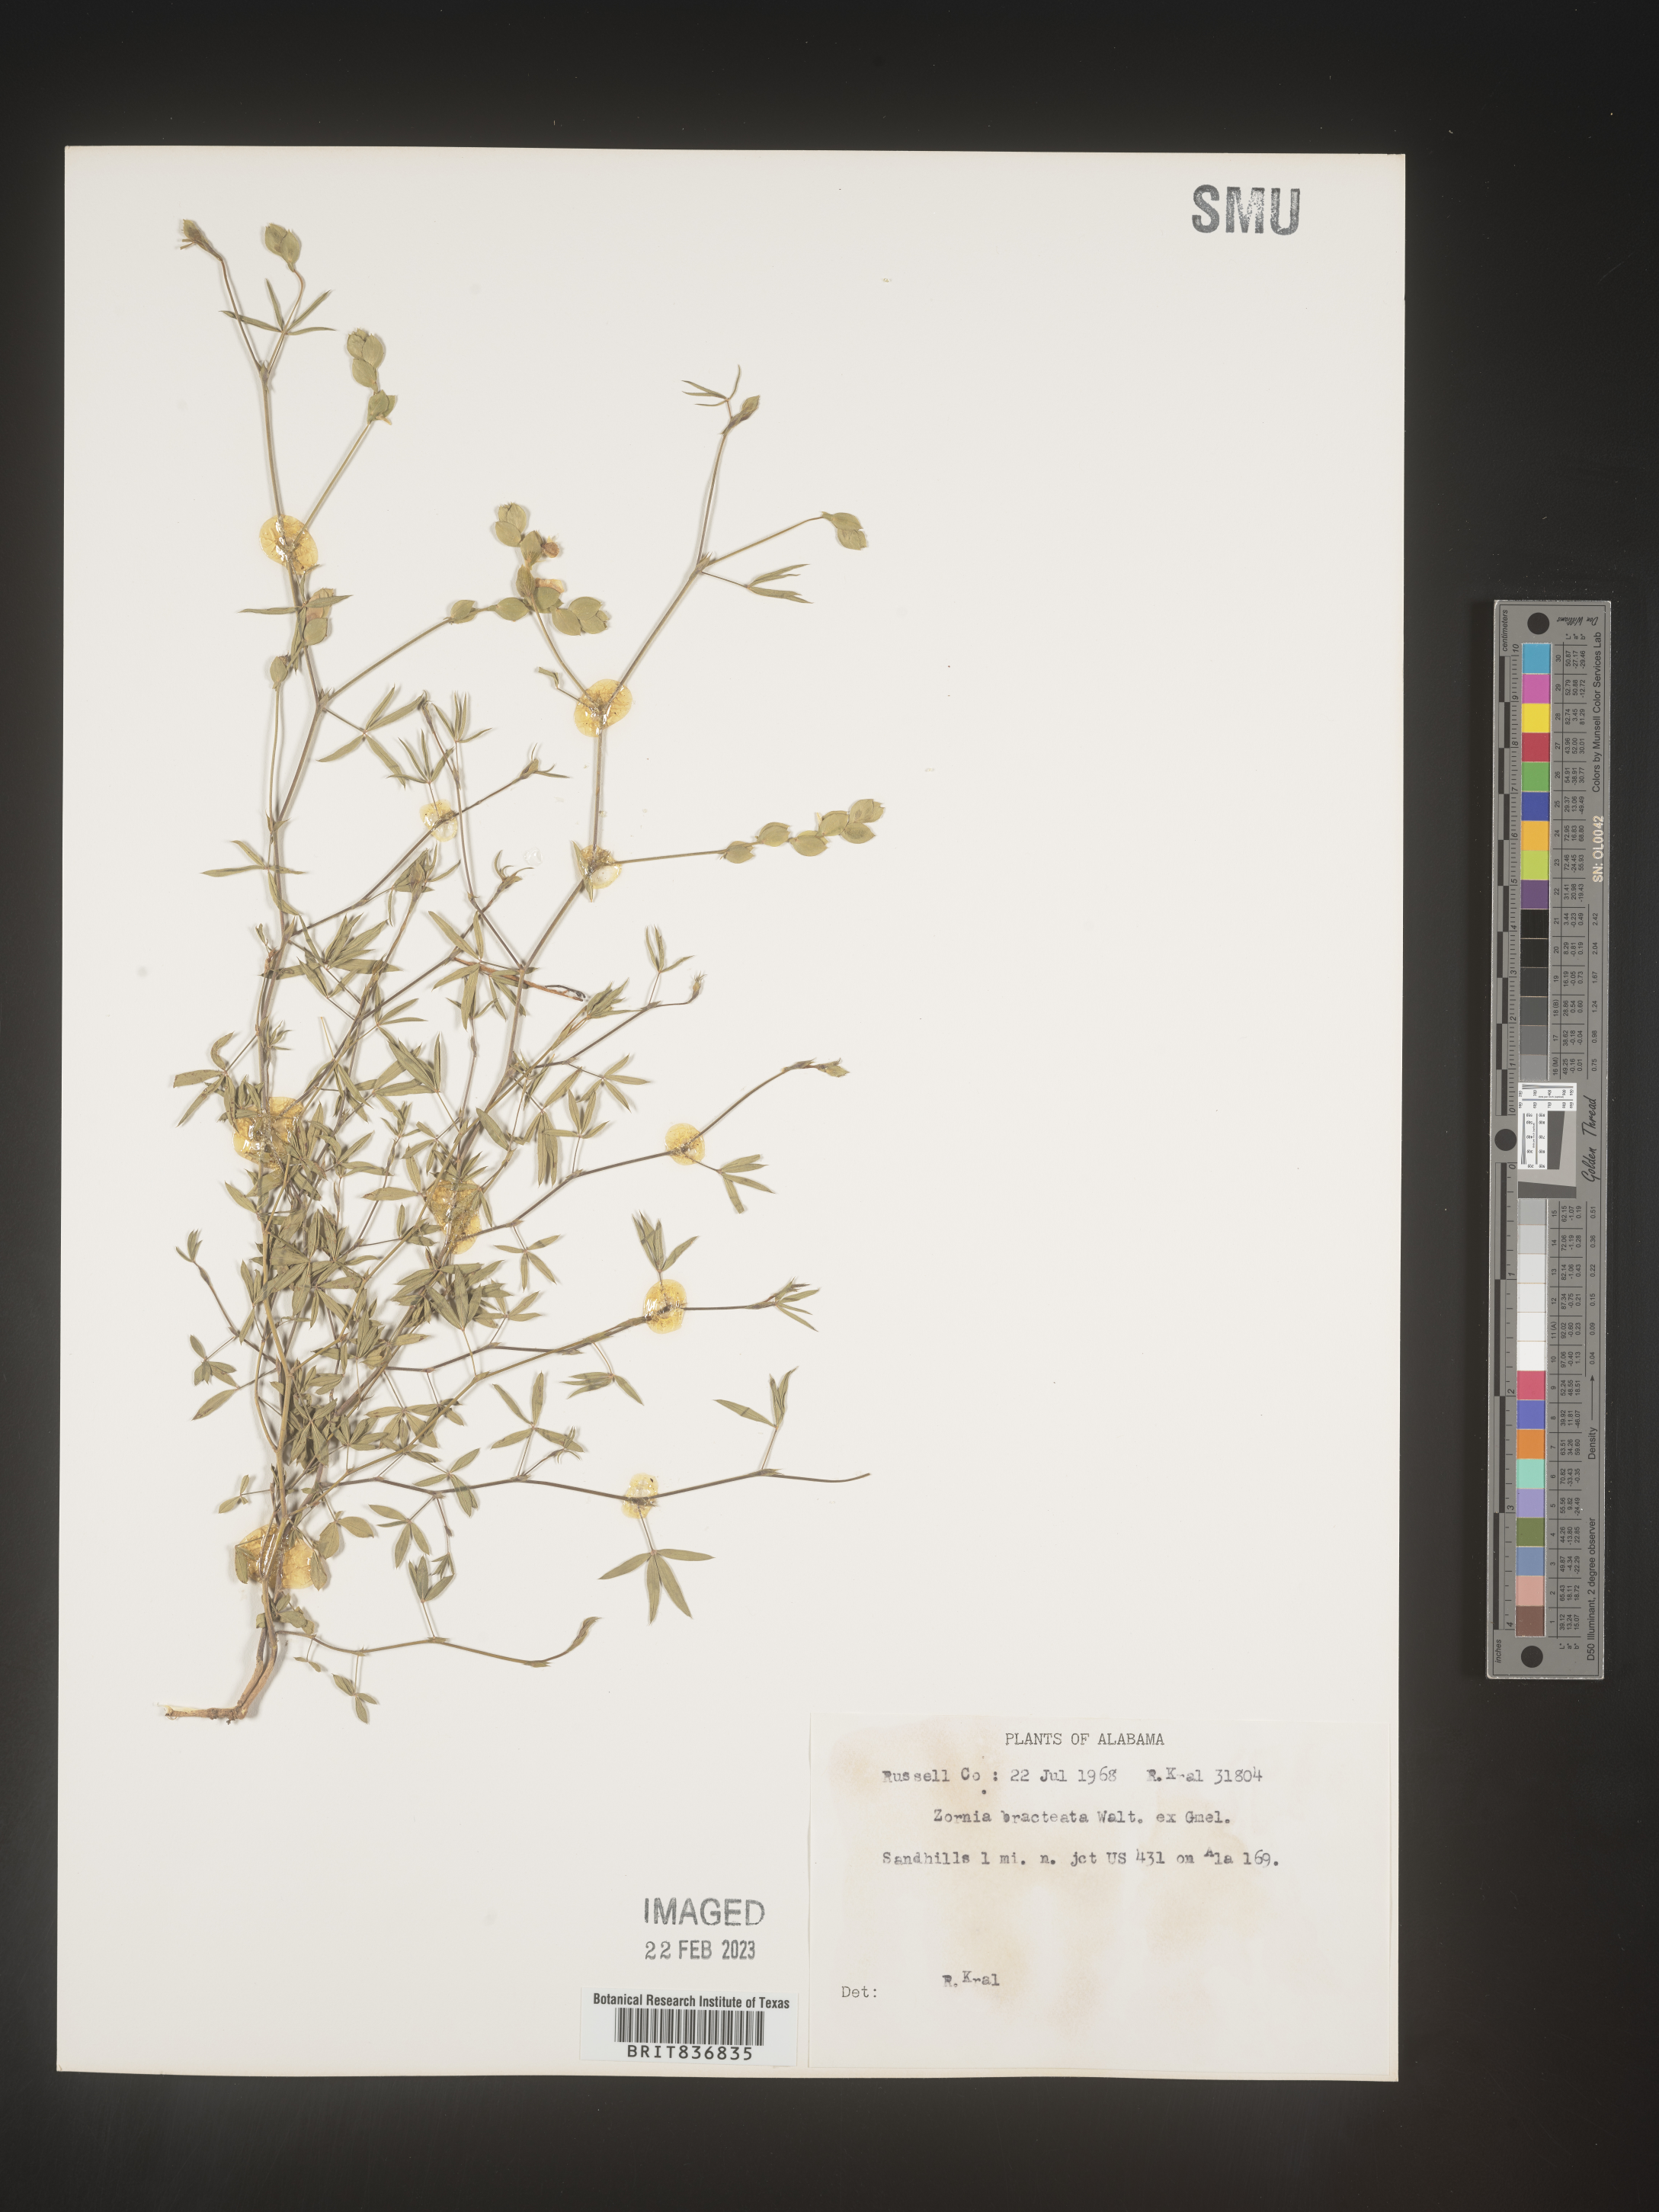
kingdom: Plantae
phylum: Tracheophyta
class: Magnoliopsida
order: Fabales
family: Fabaceae
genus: Zornia
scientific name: Zornia
